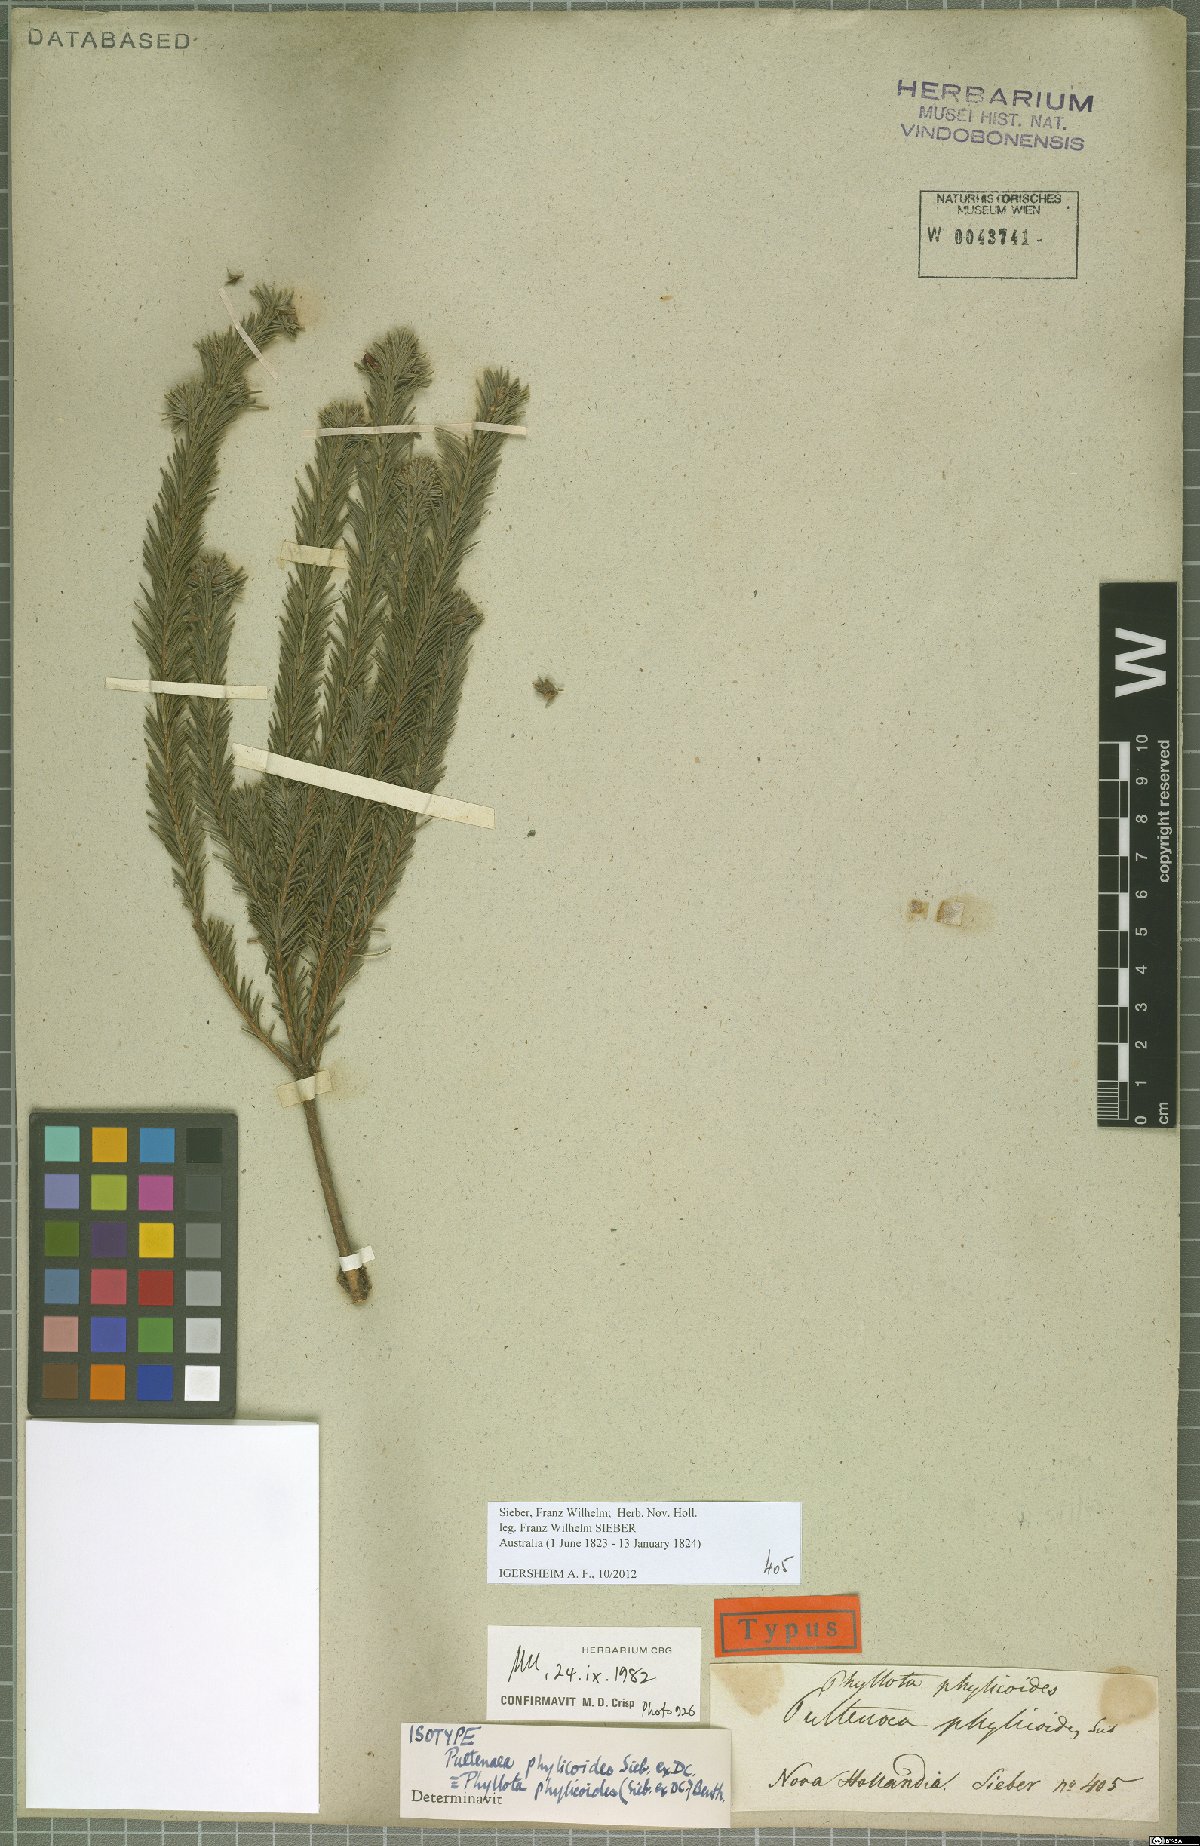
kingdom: Plantae
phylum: Tracheophyta
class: Magnoliopsida
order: Fabales
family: Fabaceae
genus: Phyllota
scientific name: Phyllota phylicoides
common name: Heath phyllota
